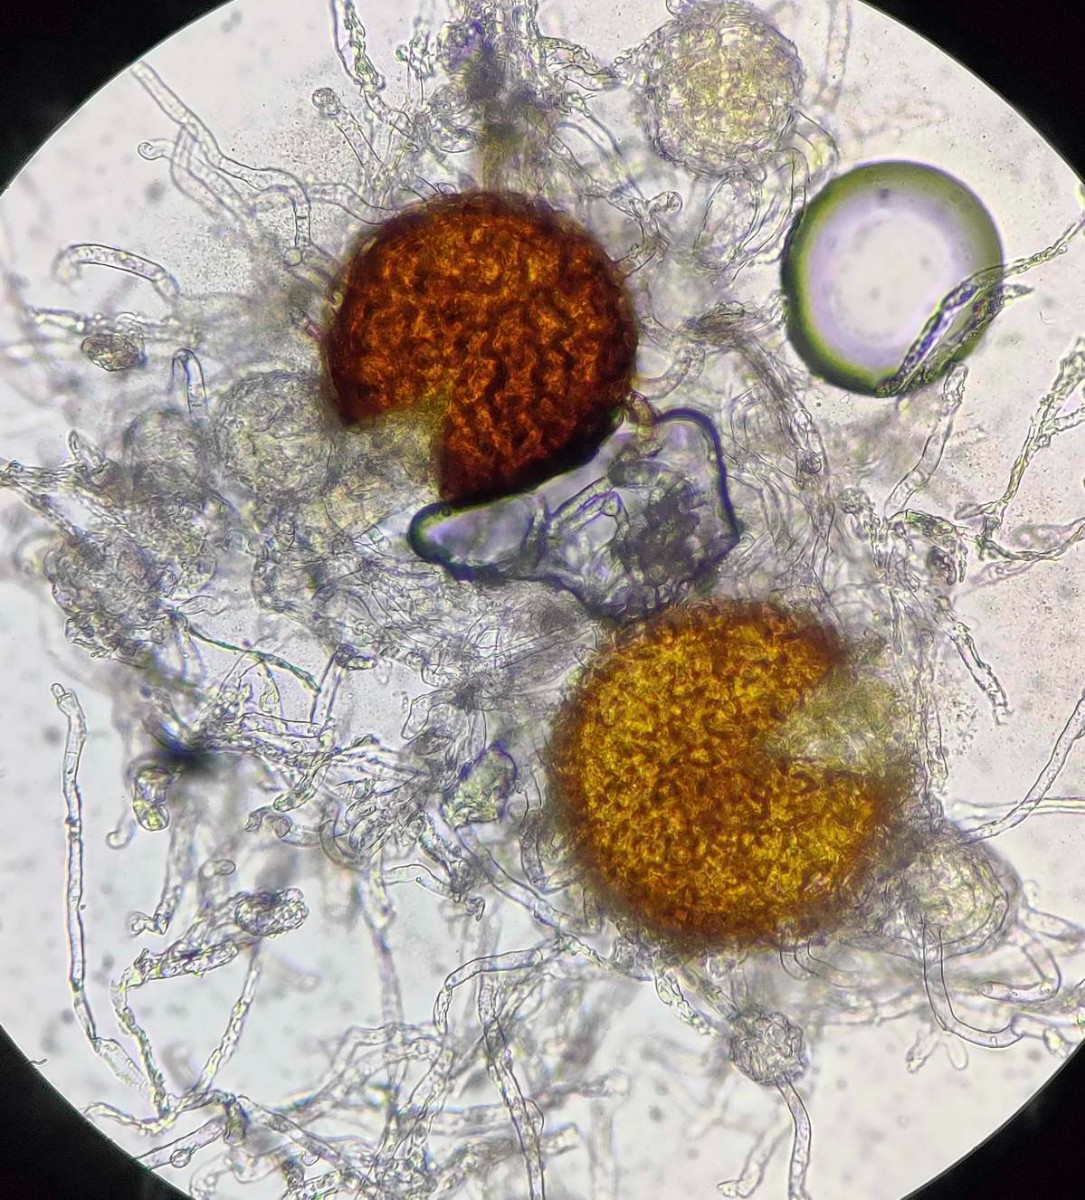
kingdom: Fungi
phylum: Ascomycota
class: Leotiomycetes
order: Helotiales
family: Erysiphaceae
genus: Golovinomyces
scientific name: Golovinomyces sordidus
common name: Plantain mildew
